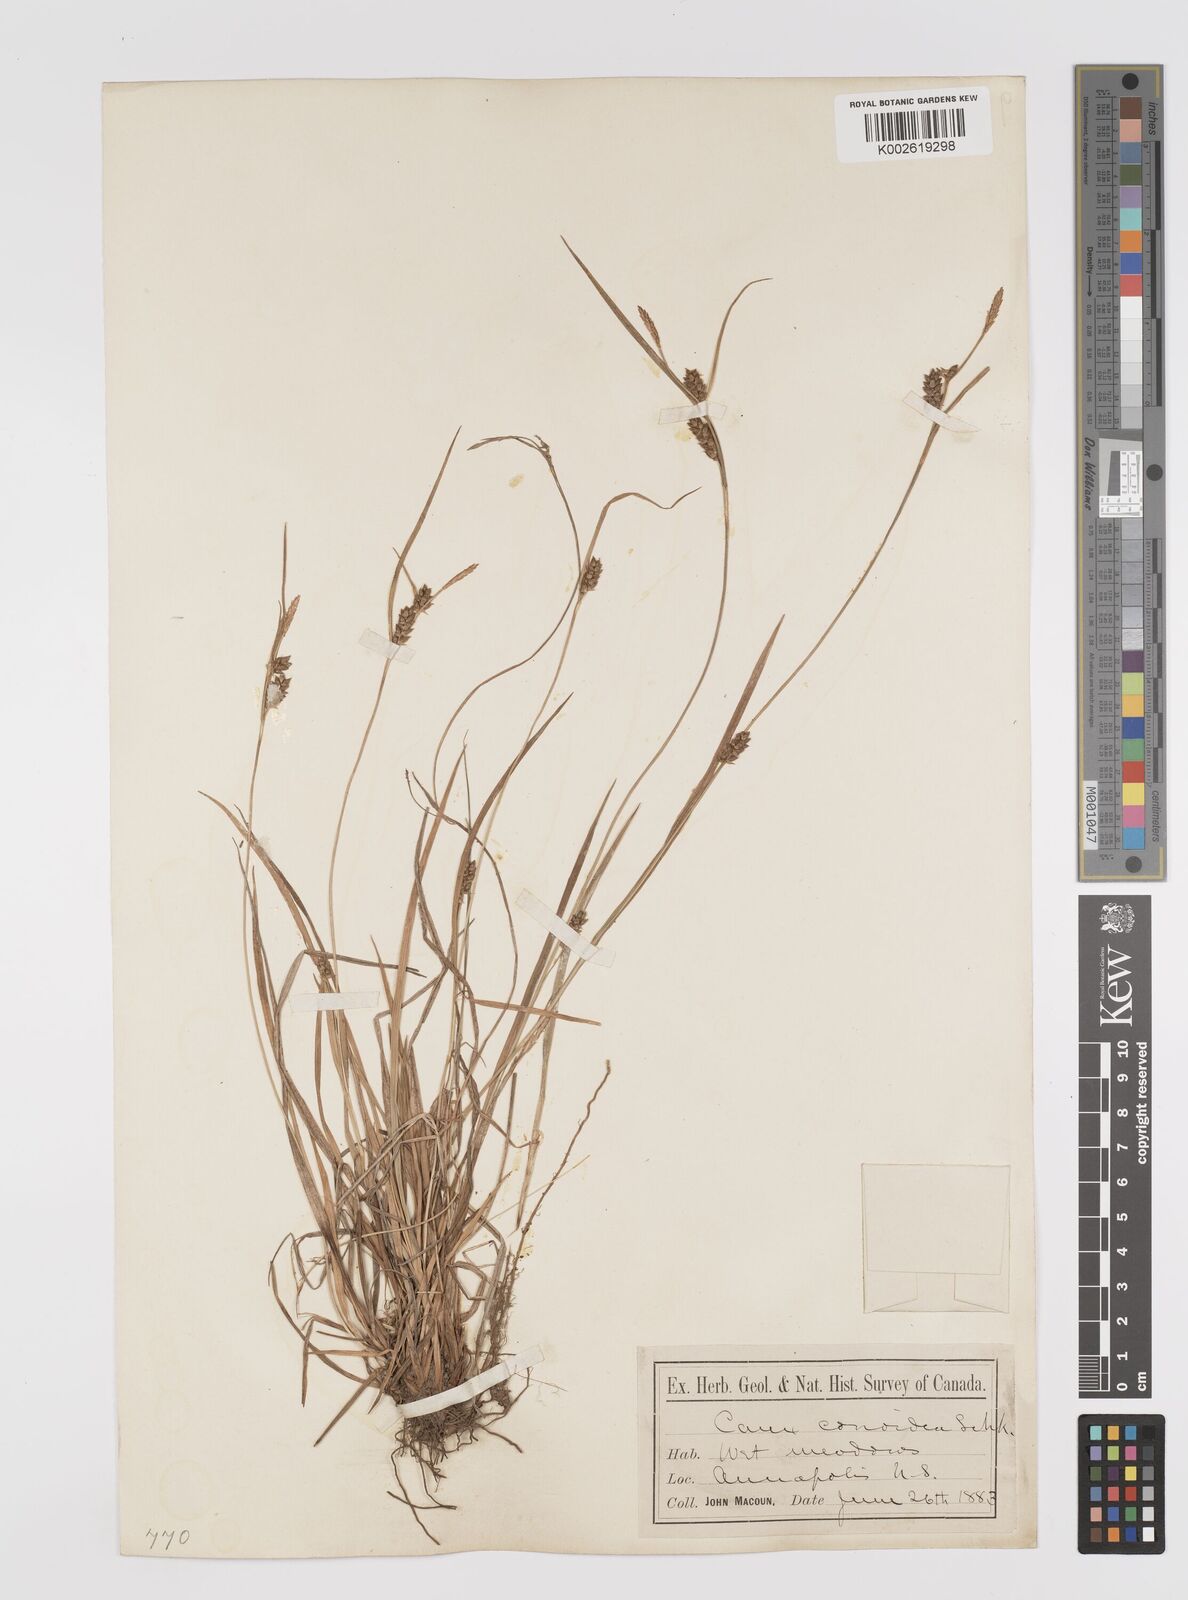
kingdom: Plantae
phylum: Tracheophyta
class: Liliopsida
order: Poales
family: Cyperaceae
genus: Carex
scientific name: Carex conoidea
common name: Cone shaped sedge
